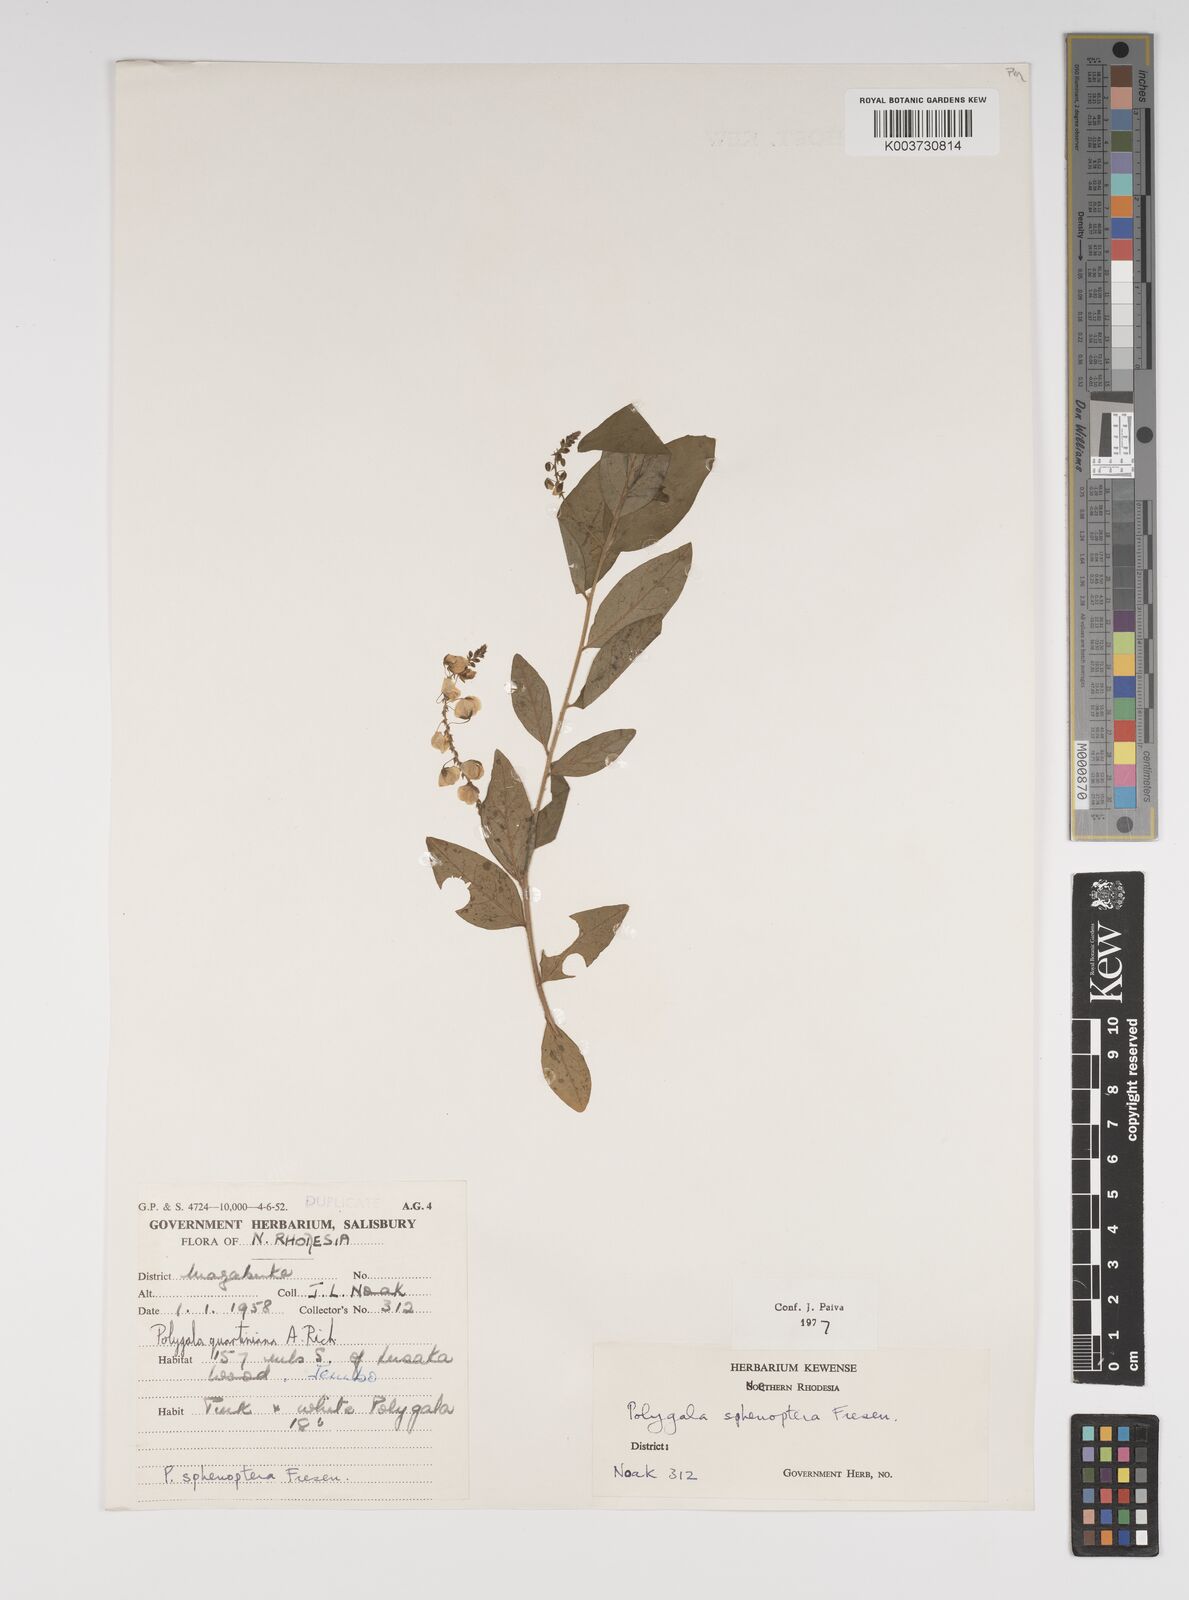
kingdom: Plantae
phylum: Tracheophyta
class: Magnoliopsida
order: Fabales
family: Polygalaceae
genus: Polygala
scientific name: Polygala sphenoptera
